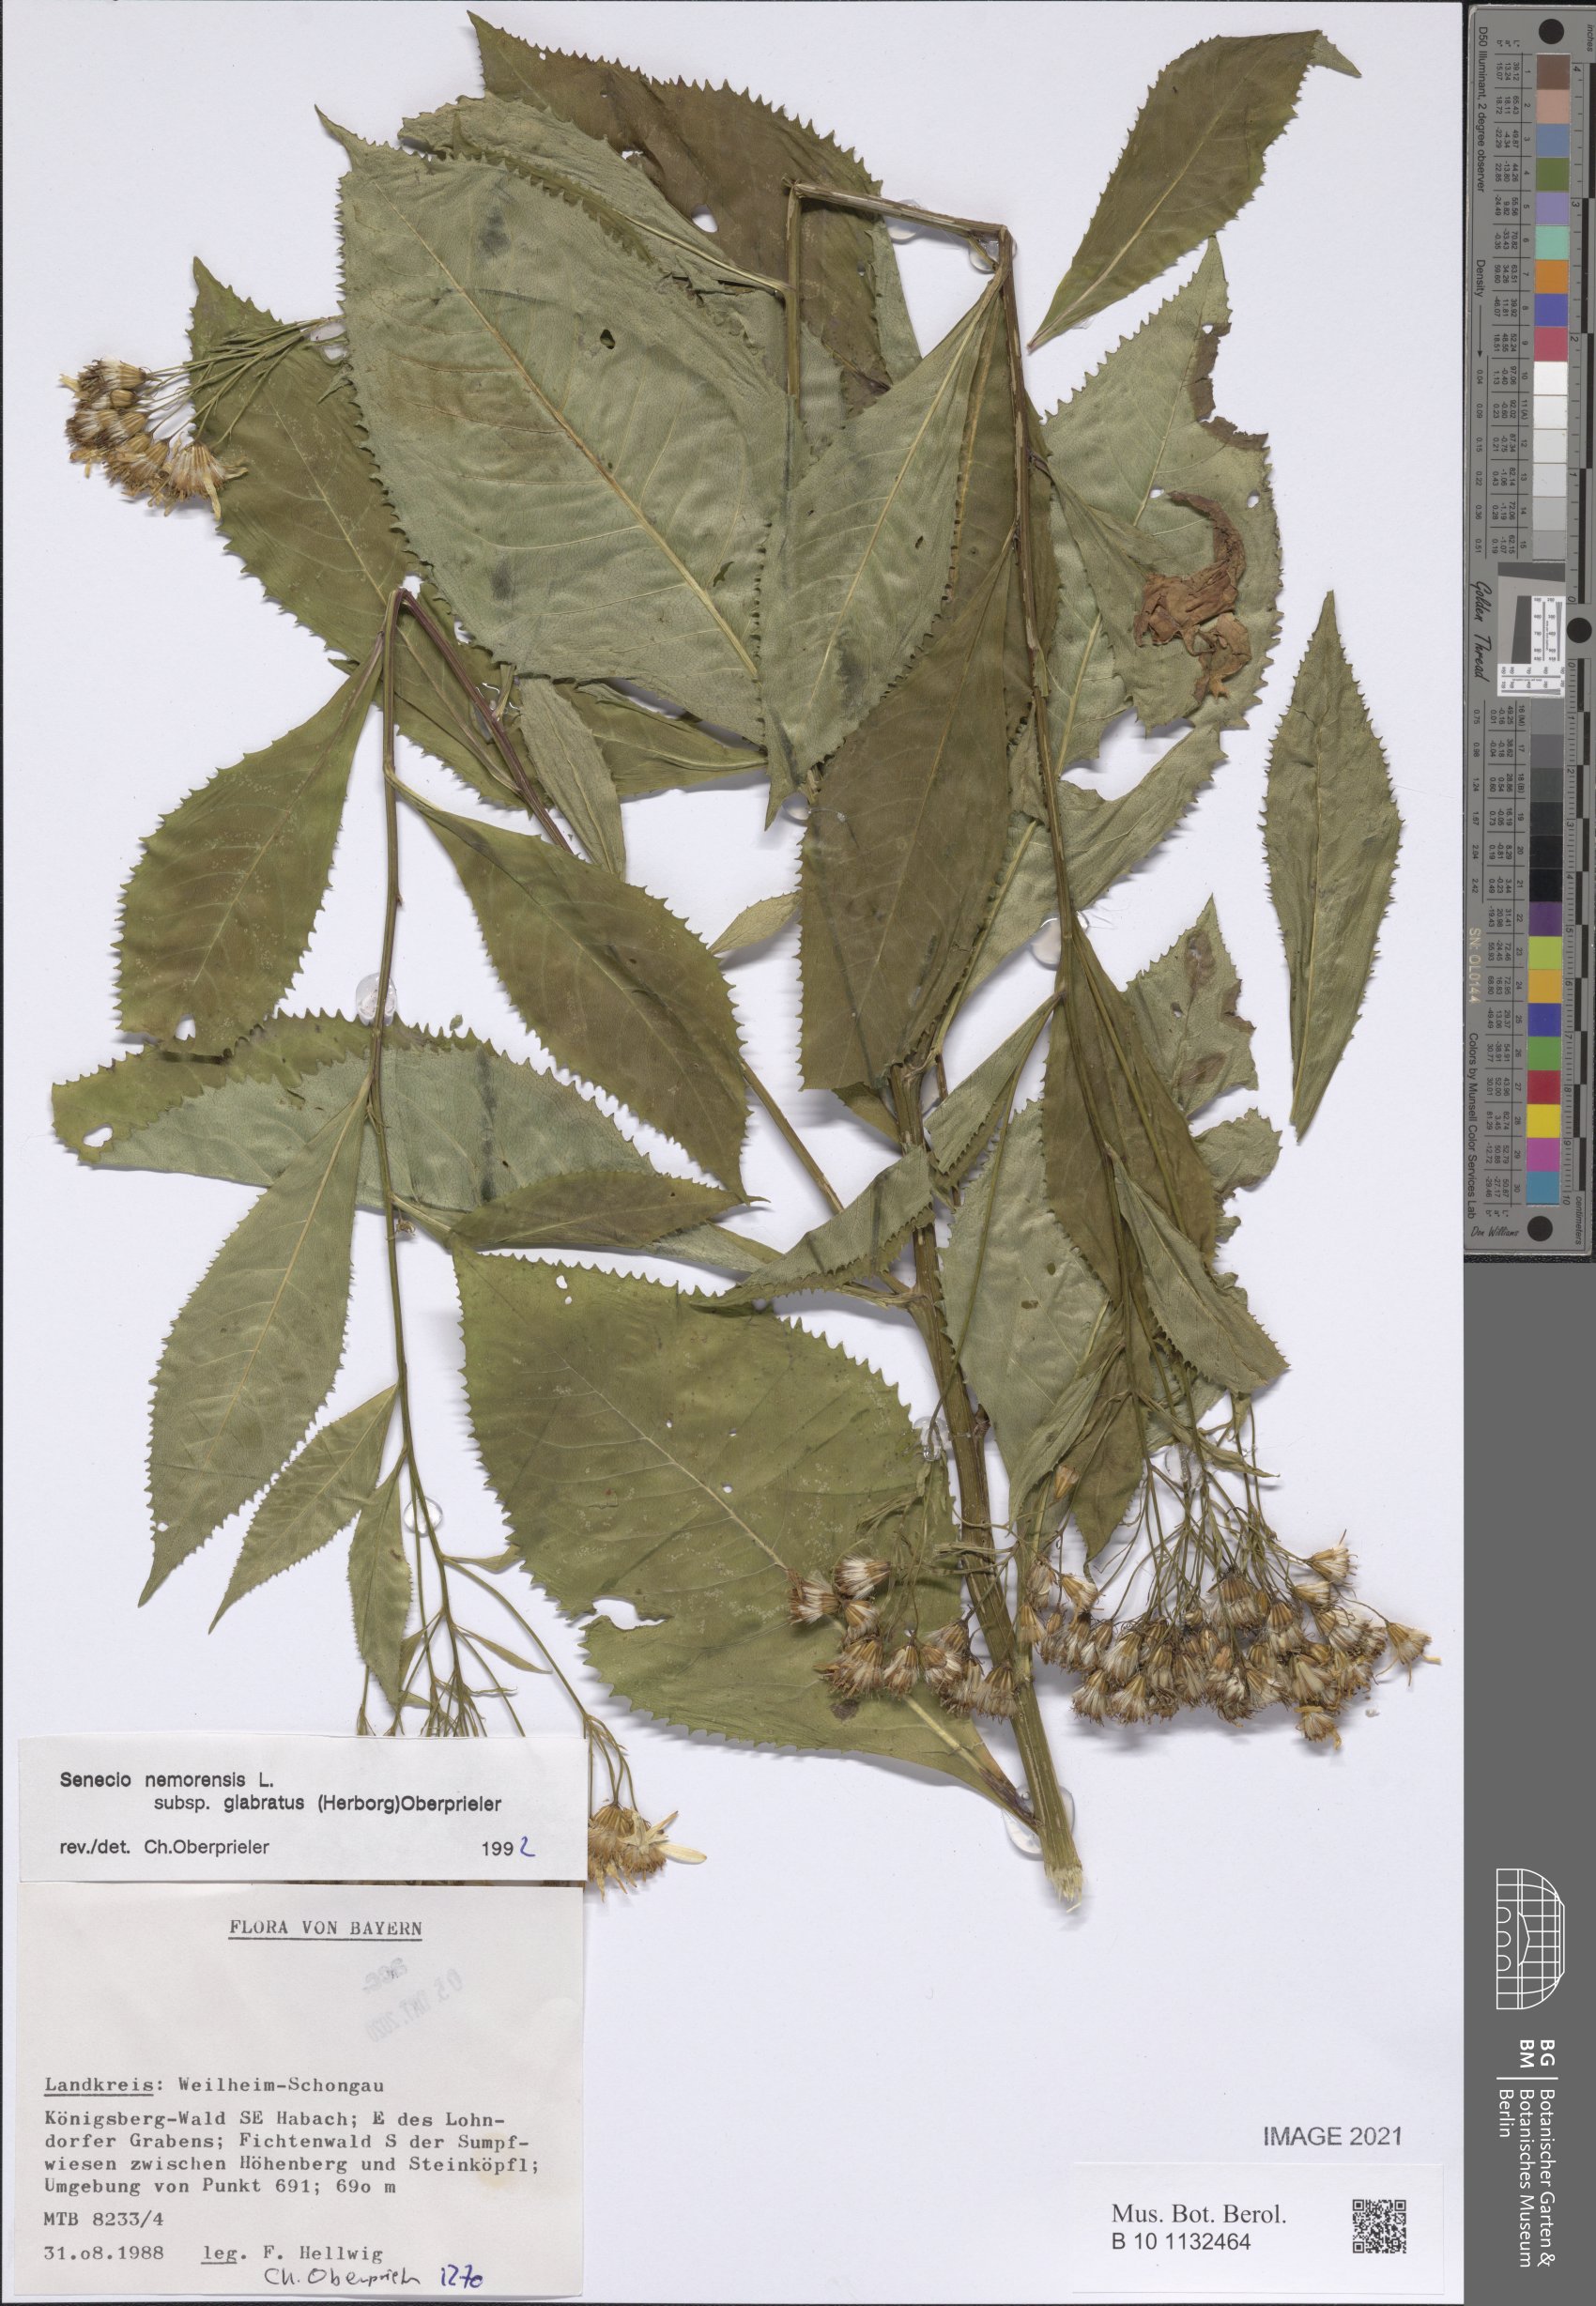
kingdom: Plantae
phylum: Tracheophyta
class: Magnoliopsida
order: Asterales
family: Asteraceae
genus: Senecio
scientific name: Senecio germanicus
